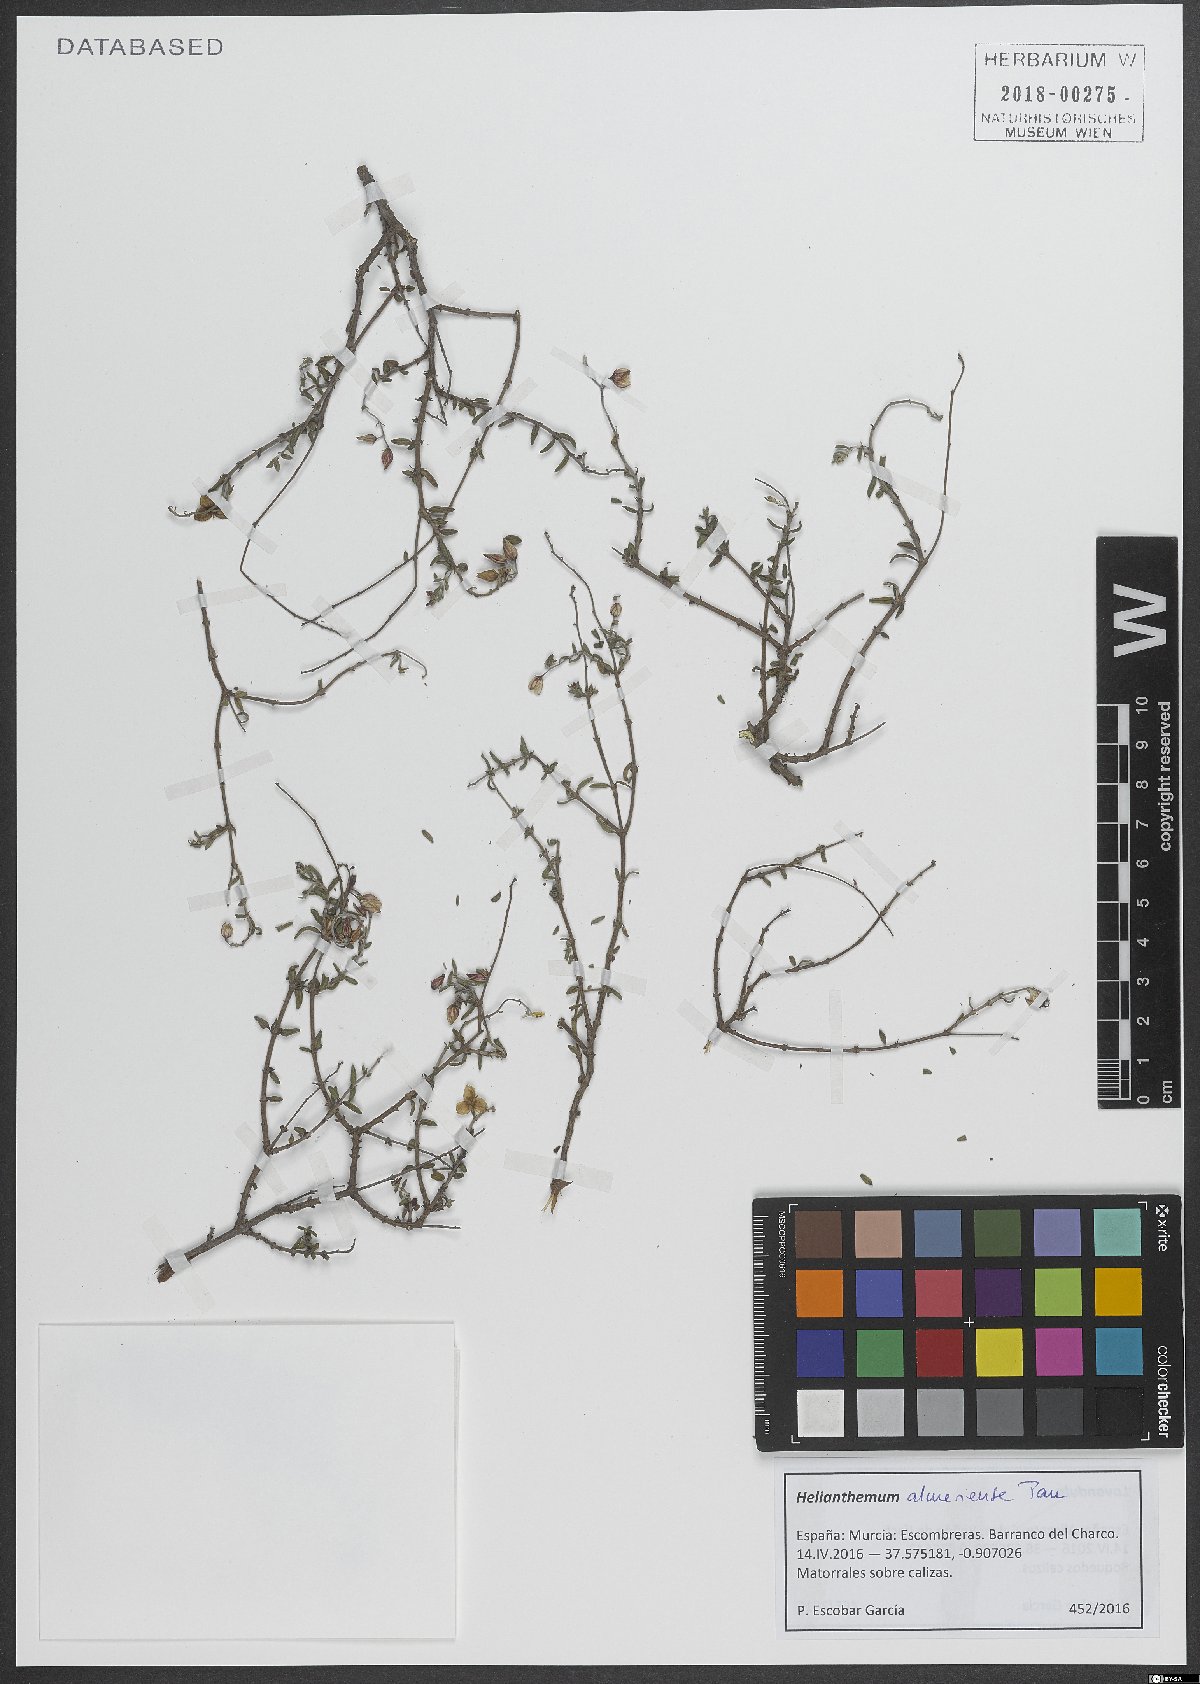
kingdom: Plantae
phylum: Tracheophyta
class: Magnoliopsida
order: Malvales
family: Cistaceae
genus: Helianthemum
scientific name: Helianthemum almeriense
